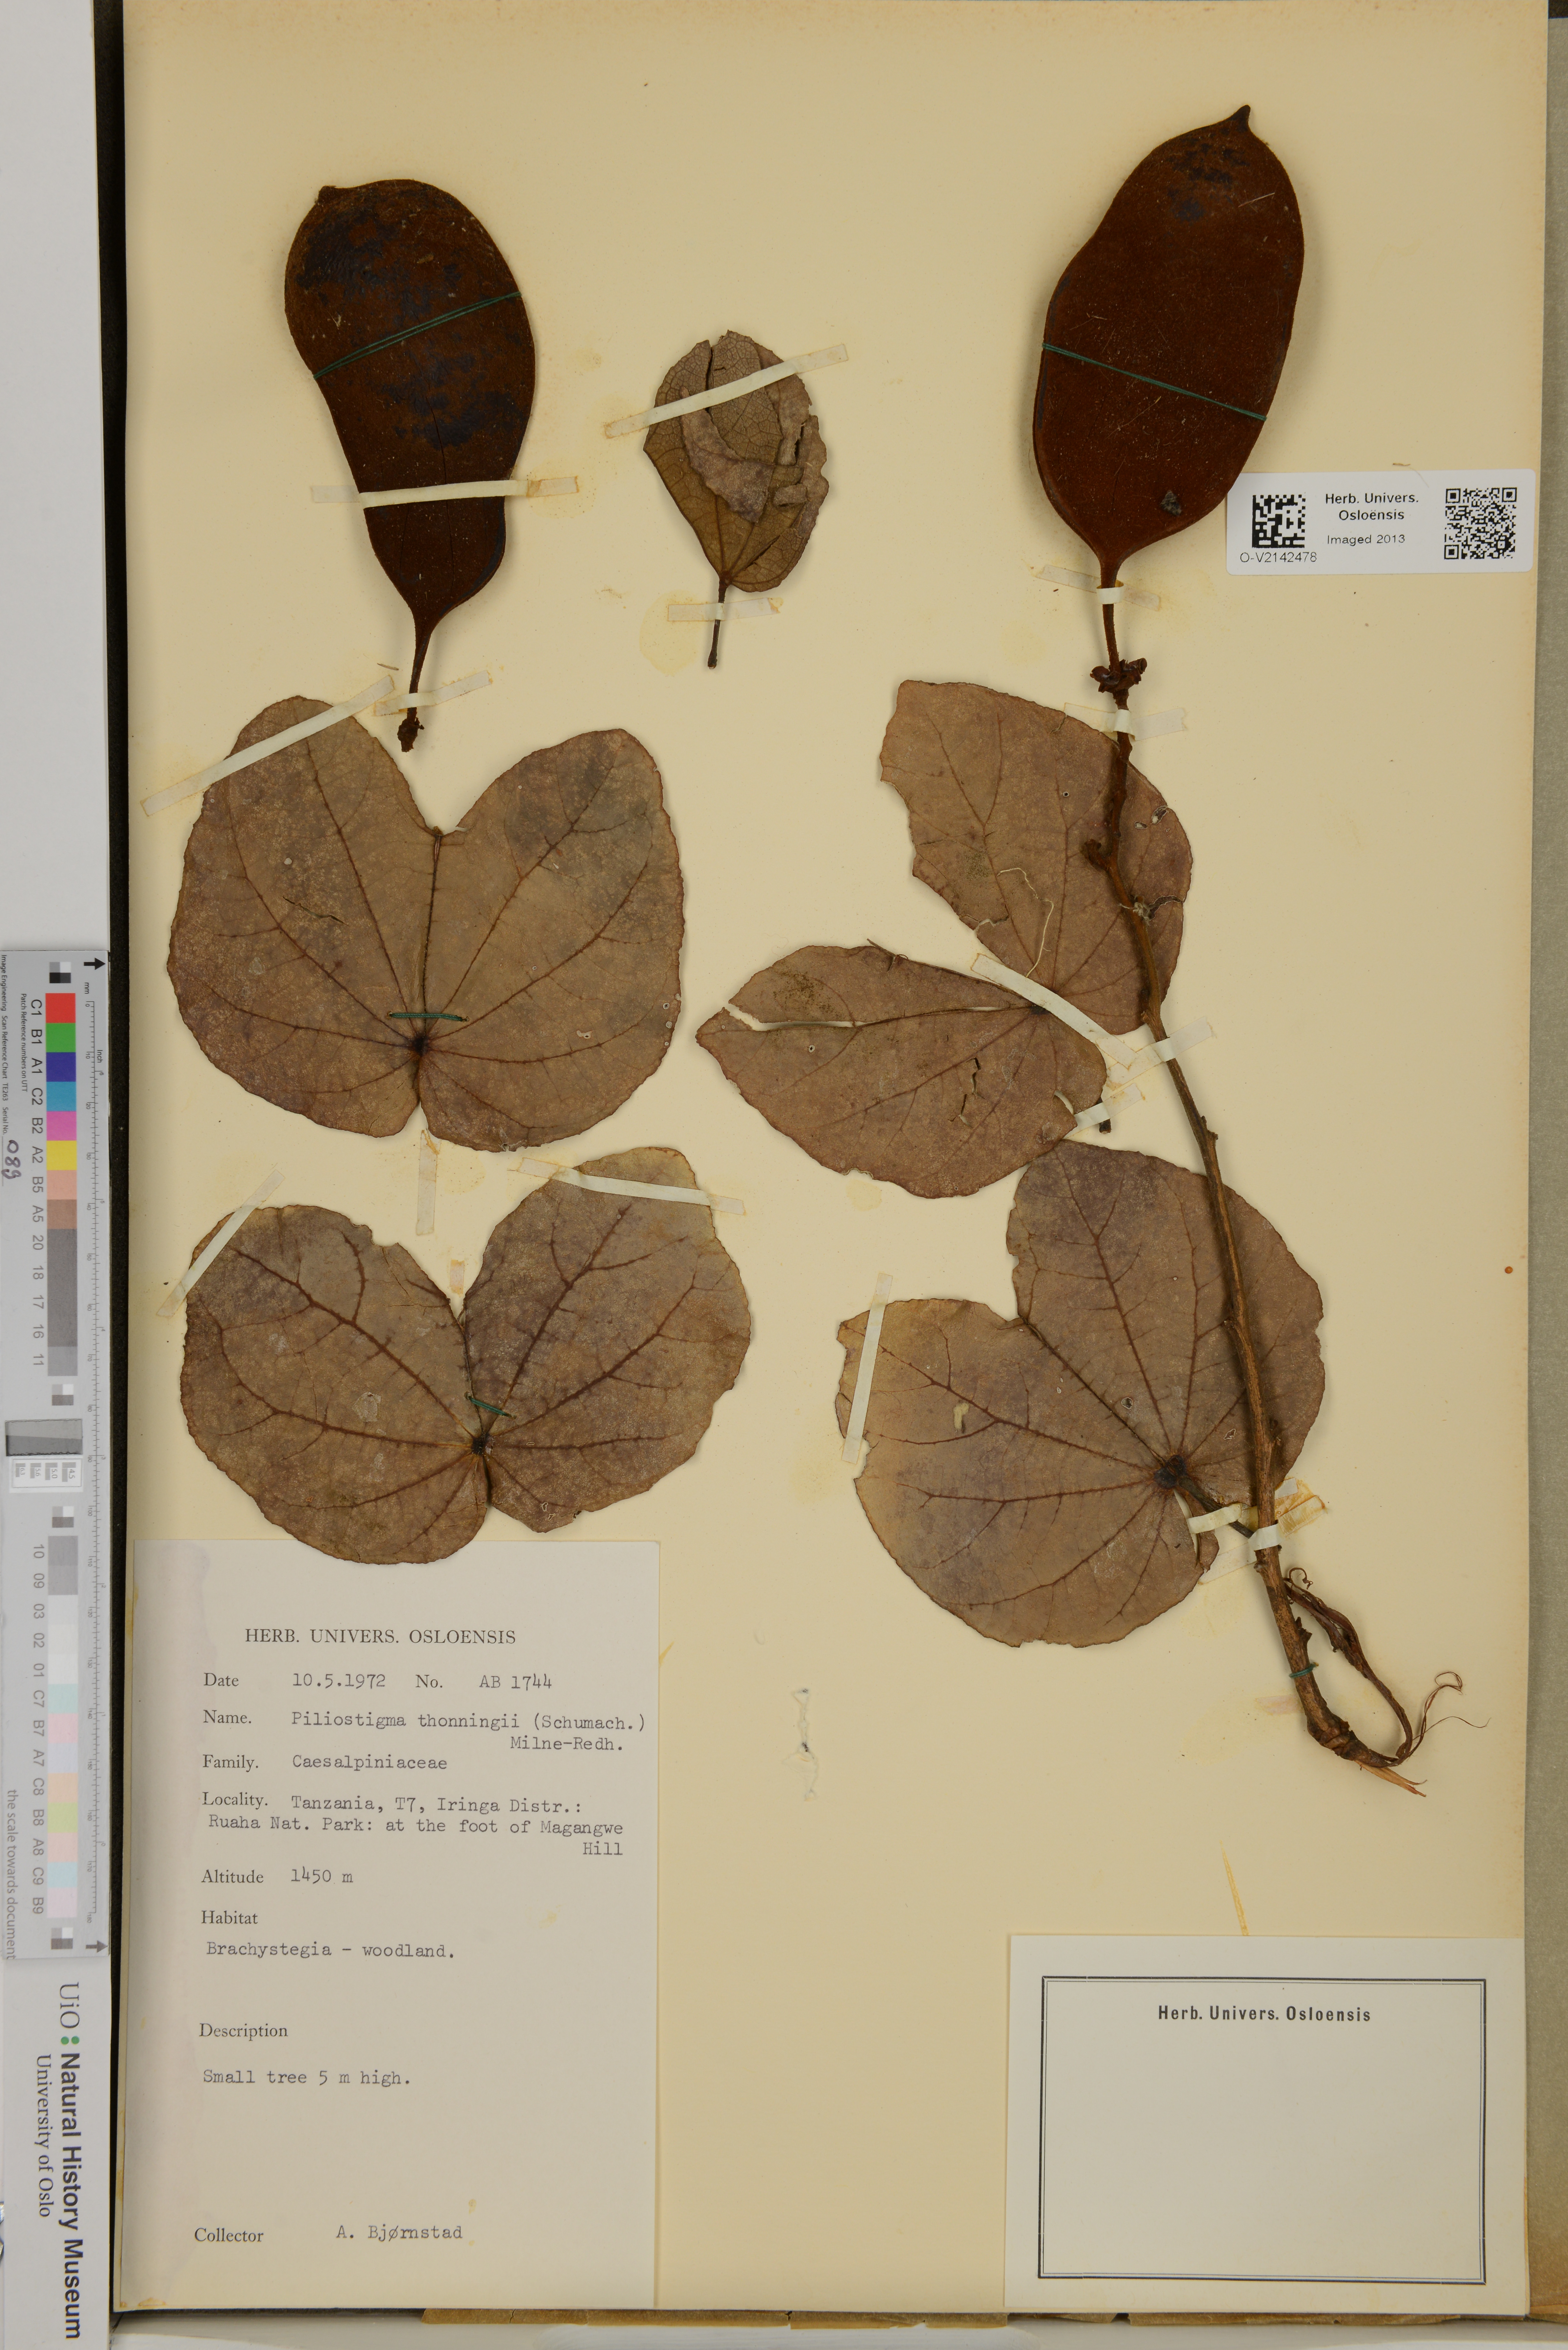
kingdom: Plantae
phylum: Tracheophyta
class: Magnoliopsida
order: Fabales
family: Fabaceae
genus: Piliostigma
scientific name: Piliostigma thonningii
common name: Kao
